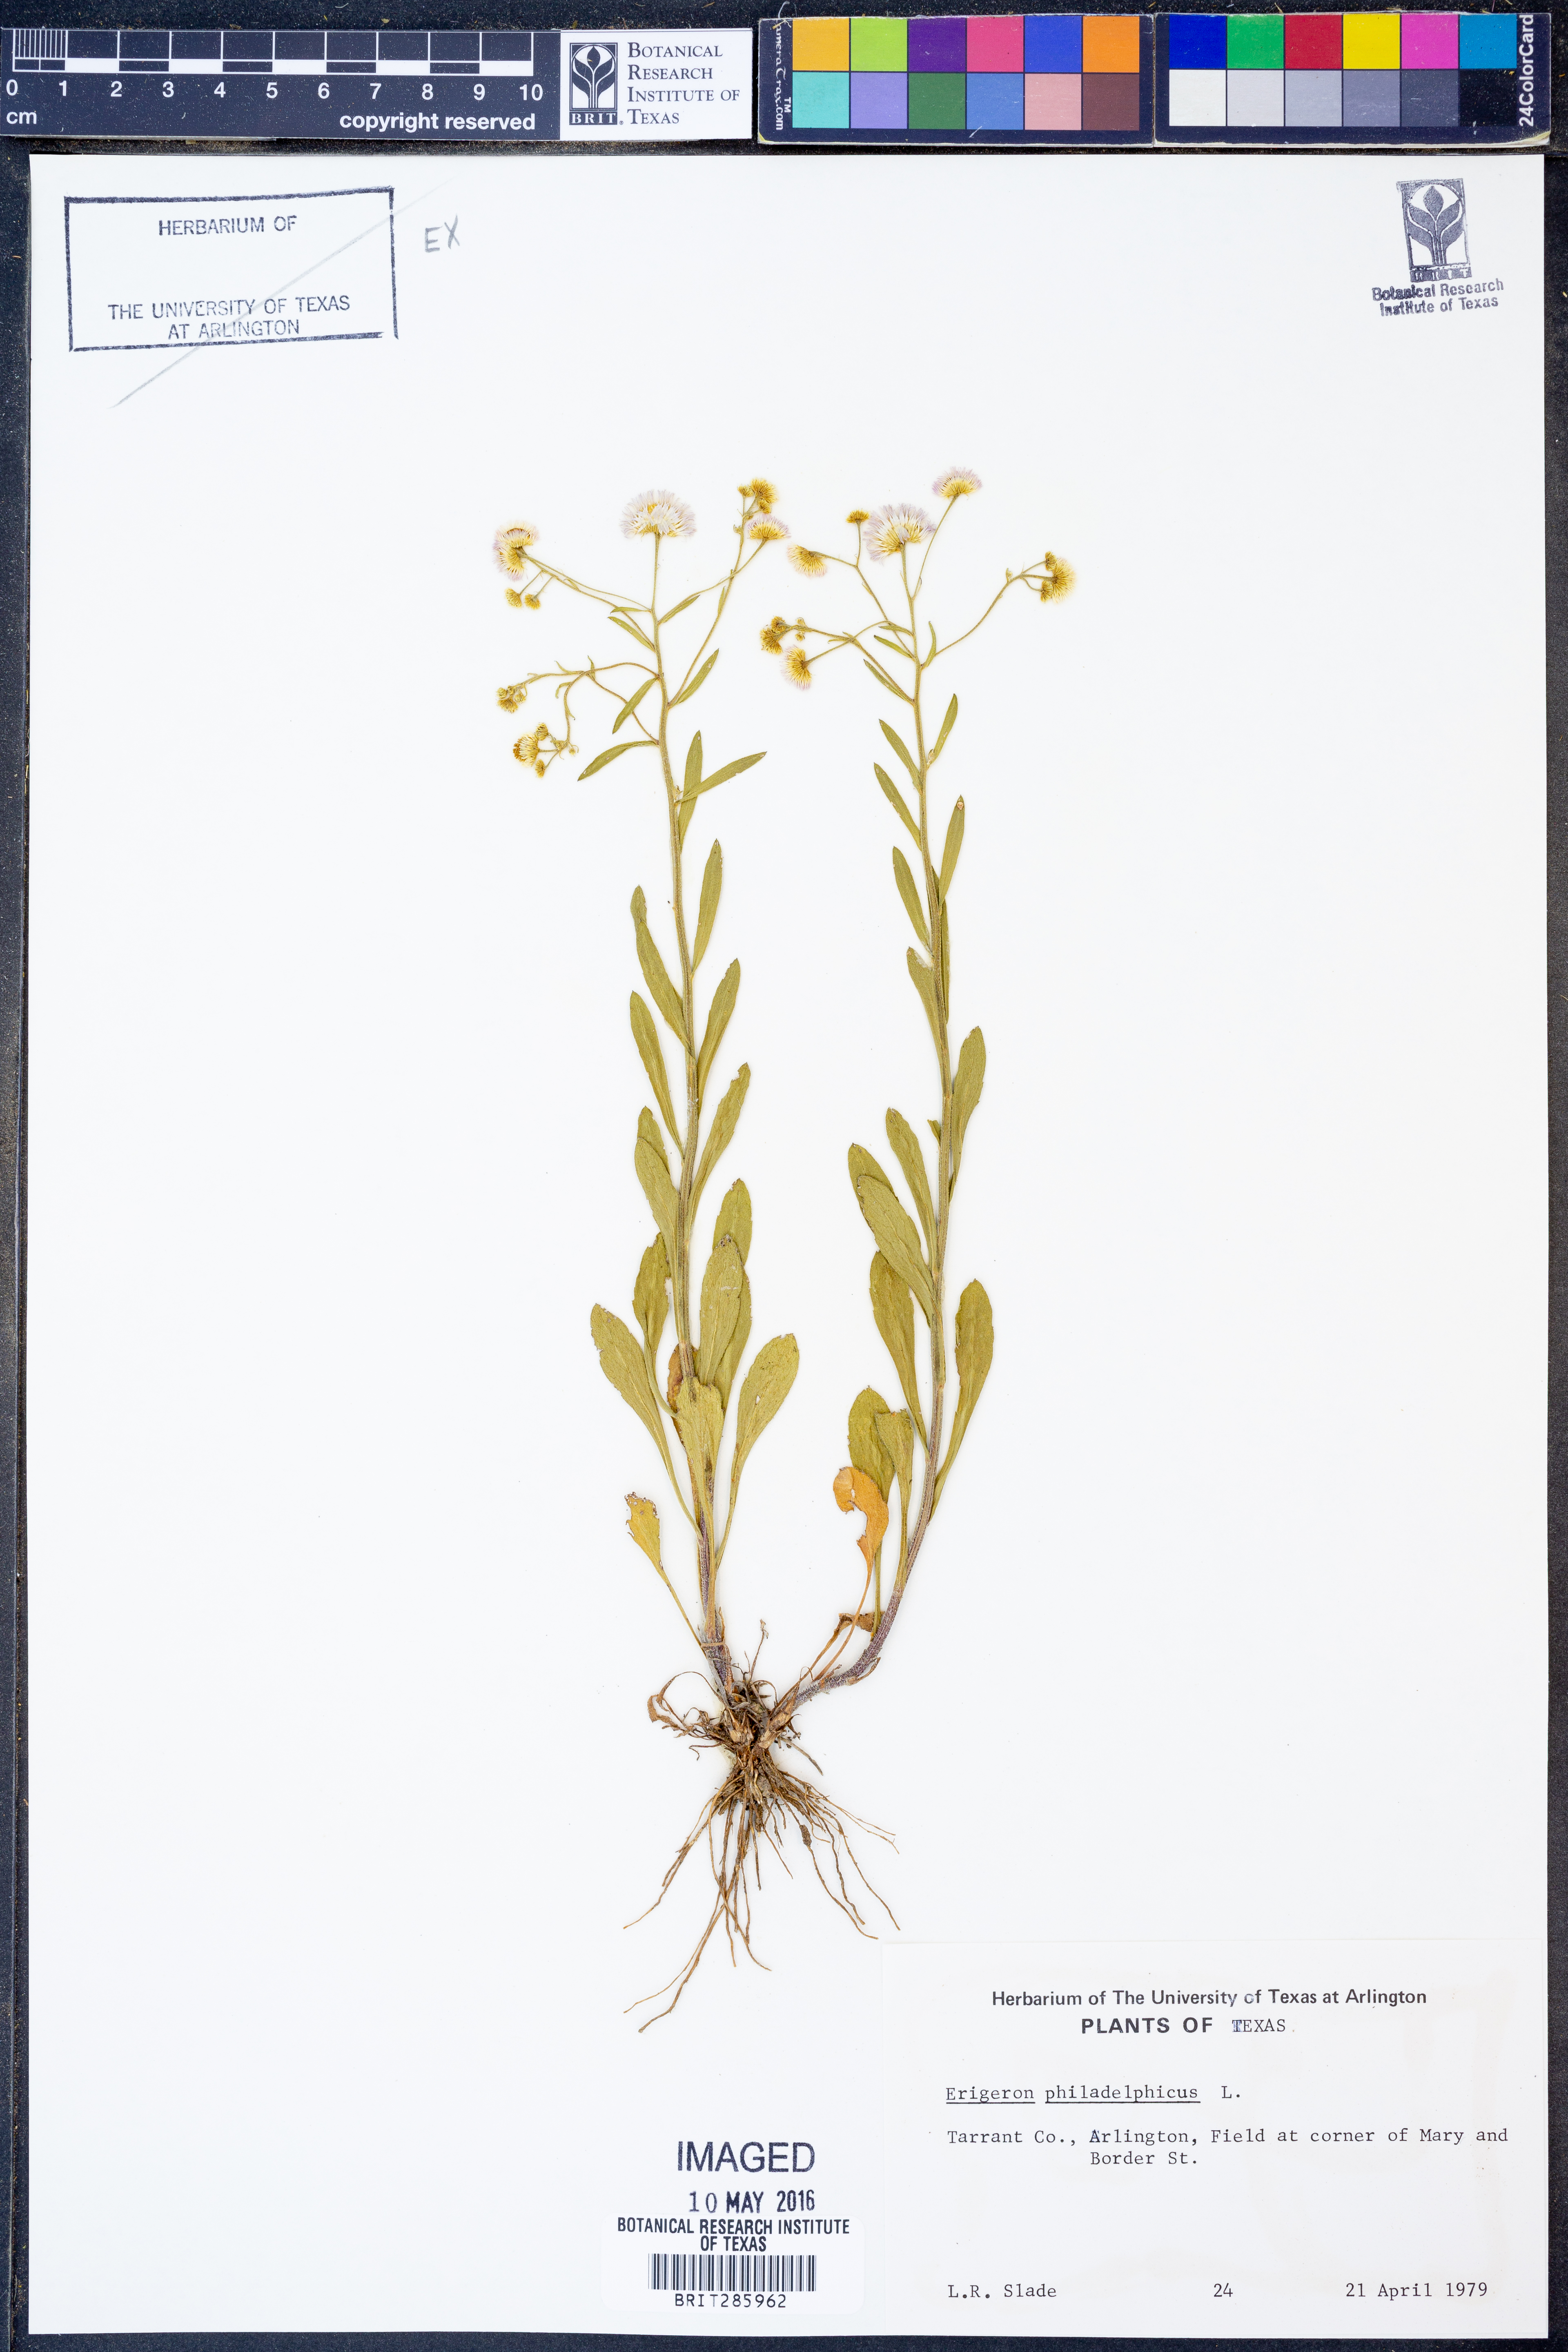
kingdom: Plantae
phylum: Tracheophyta
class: Magnoliopsida
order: Asterales
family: Asteraceae
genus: Erigeron
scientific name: Erigeron philadelphicus
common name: Robin's-plantain
